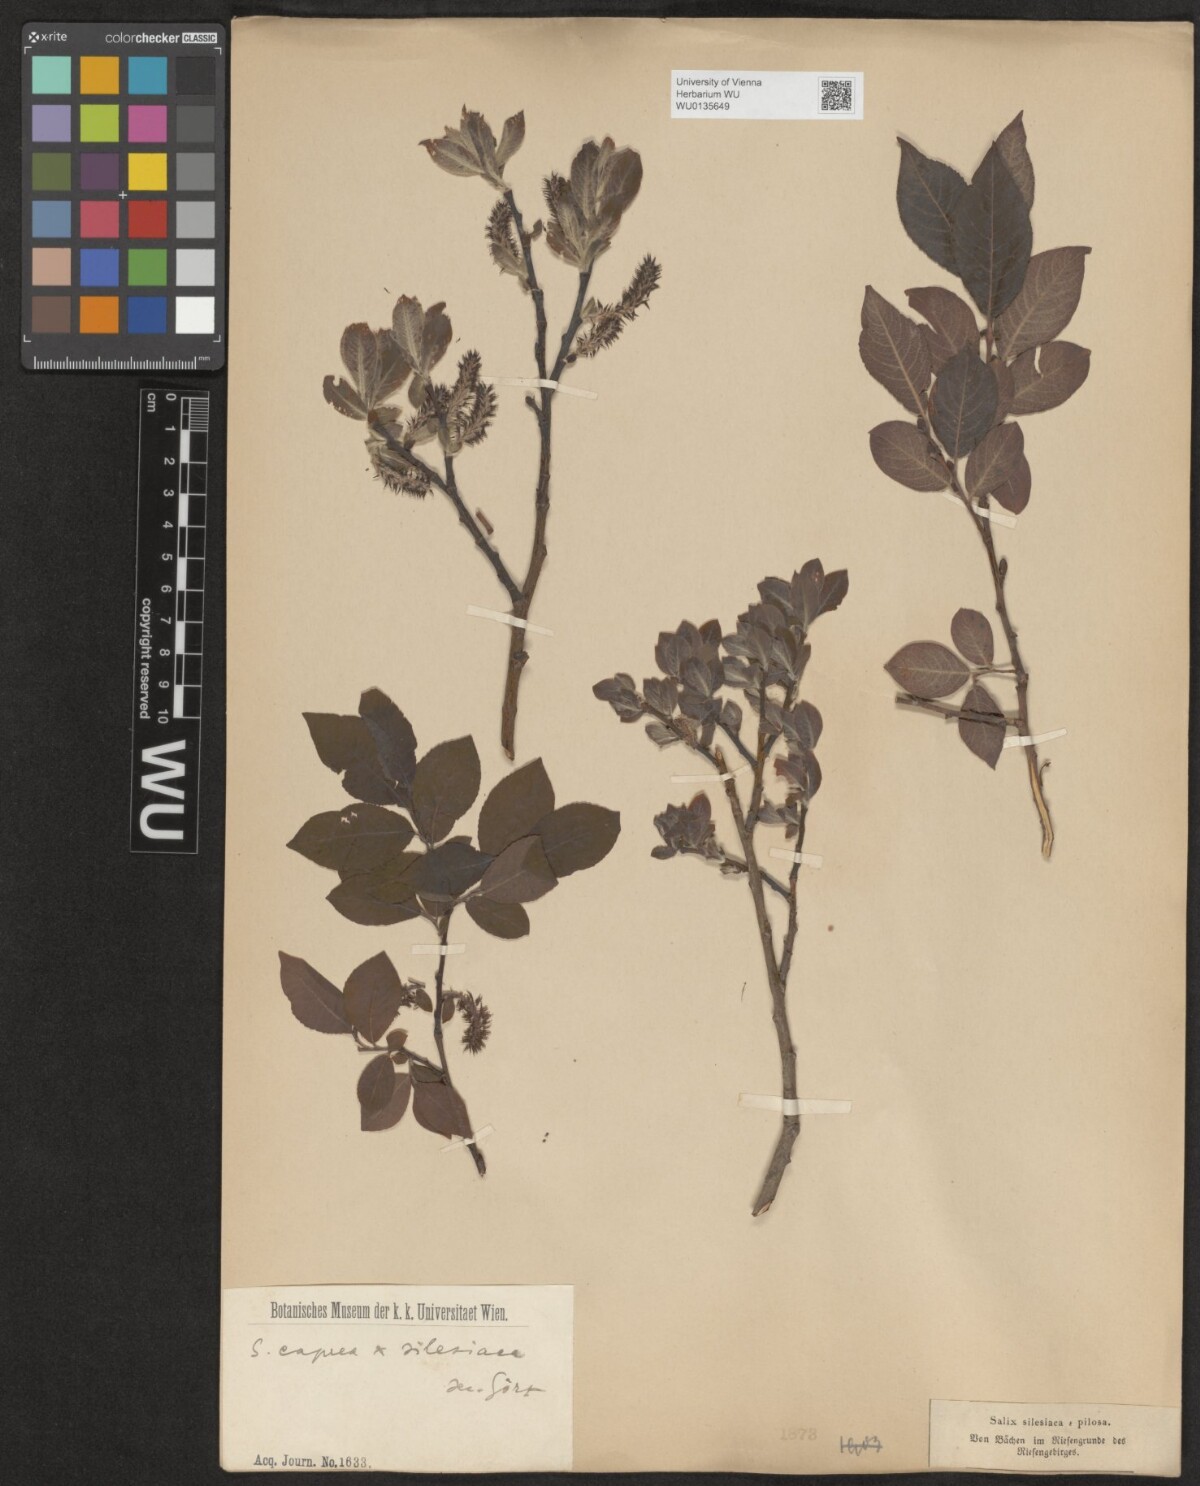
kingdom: Plantae
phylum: Tracheophyta
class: Magnoliopsida
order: Malpighiales
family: Salicaceae
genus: Salix
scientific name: Salix
